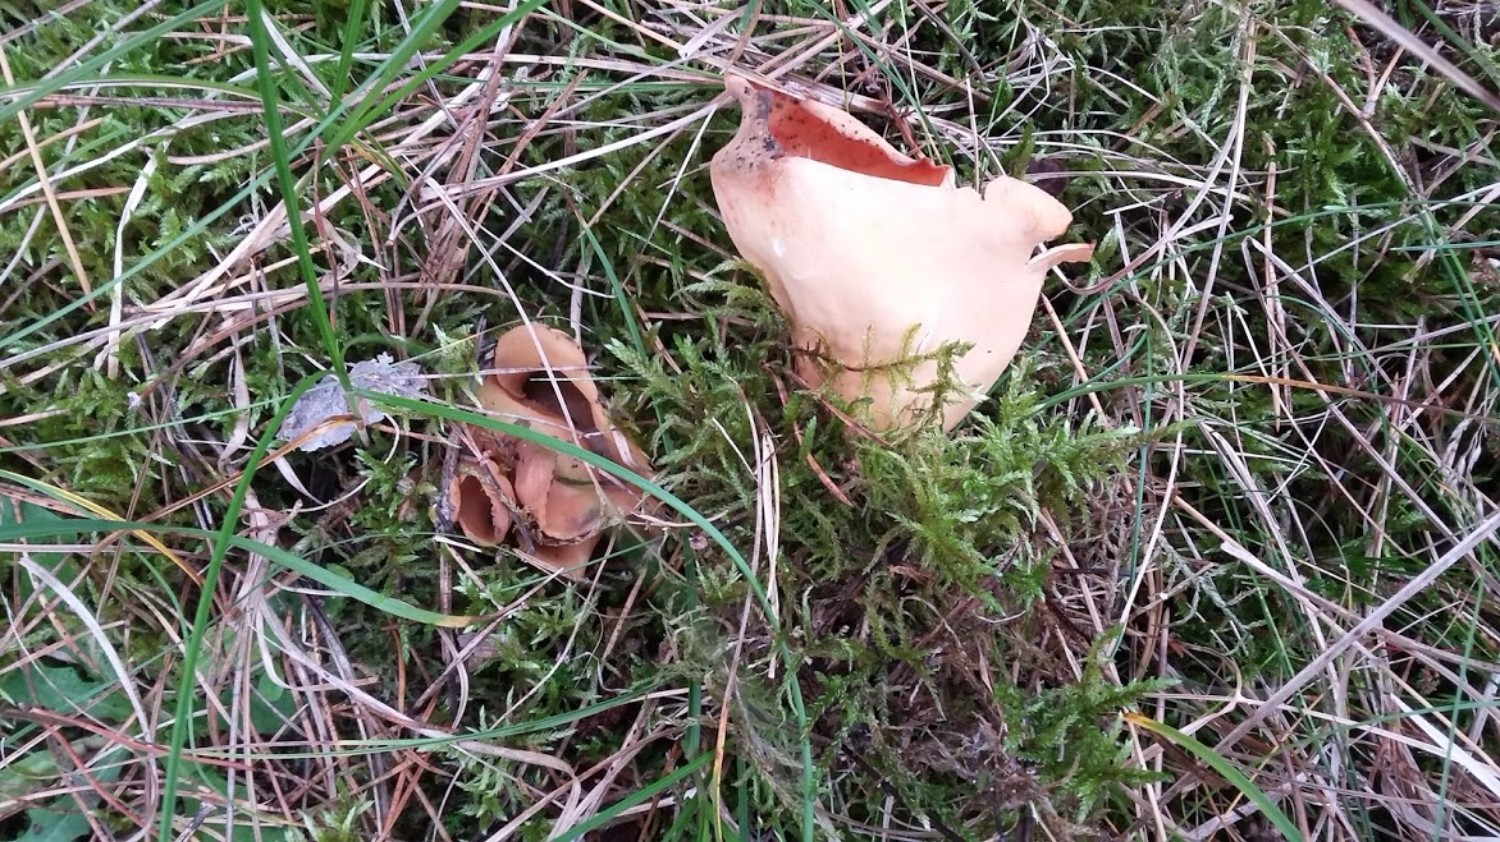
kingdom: Fungi
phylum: Ascomycota
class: Pezizomycetes
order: Pezizales
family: Otideaceae
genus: Otidea
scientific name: Otidea onotica
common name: æsel-ørebæger
